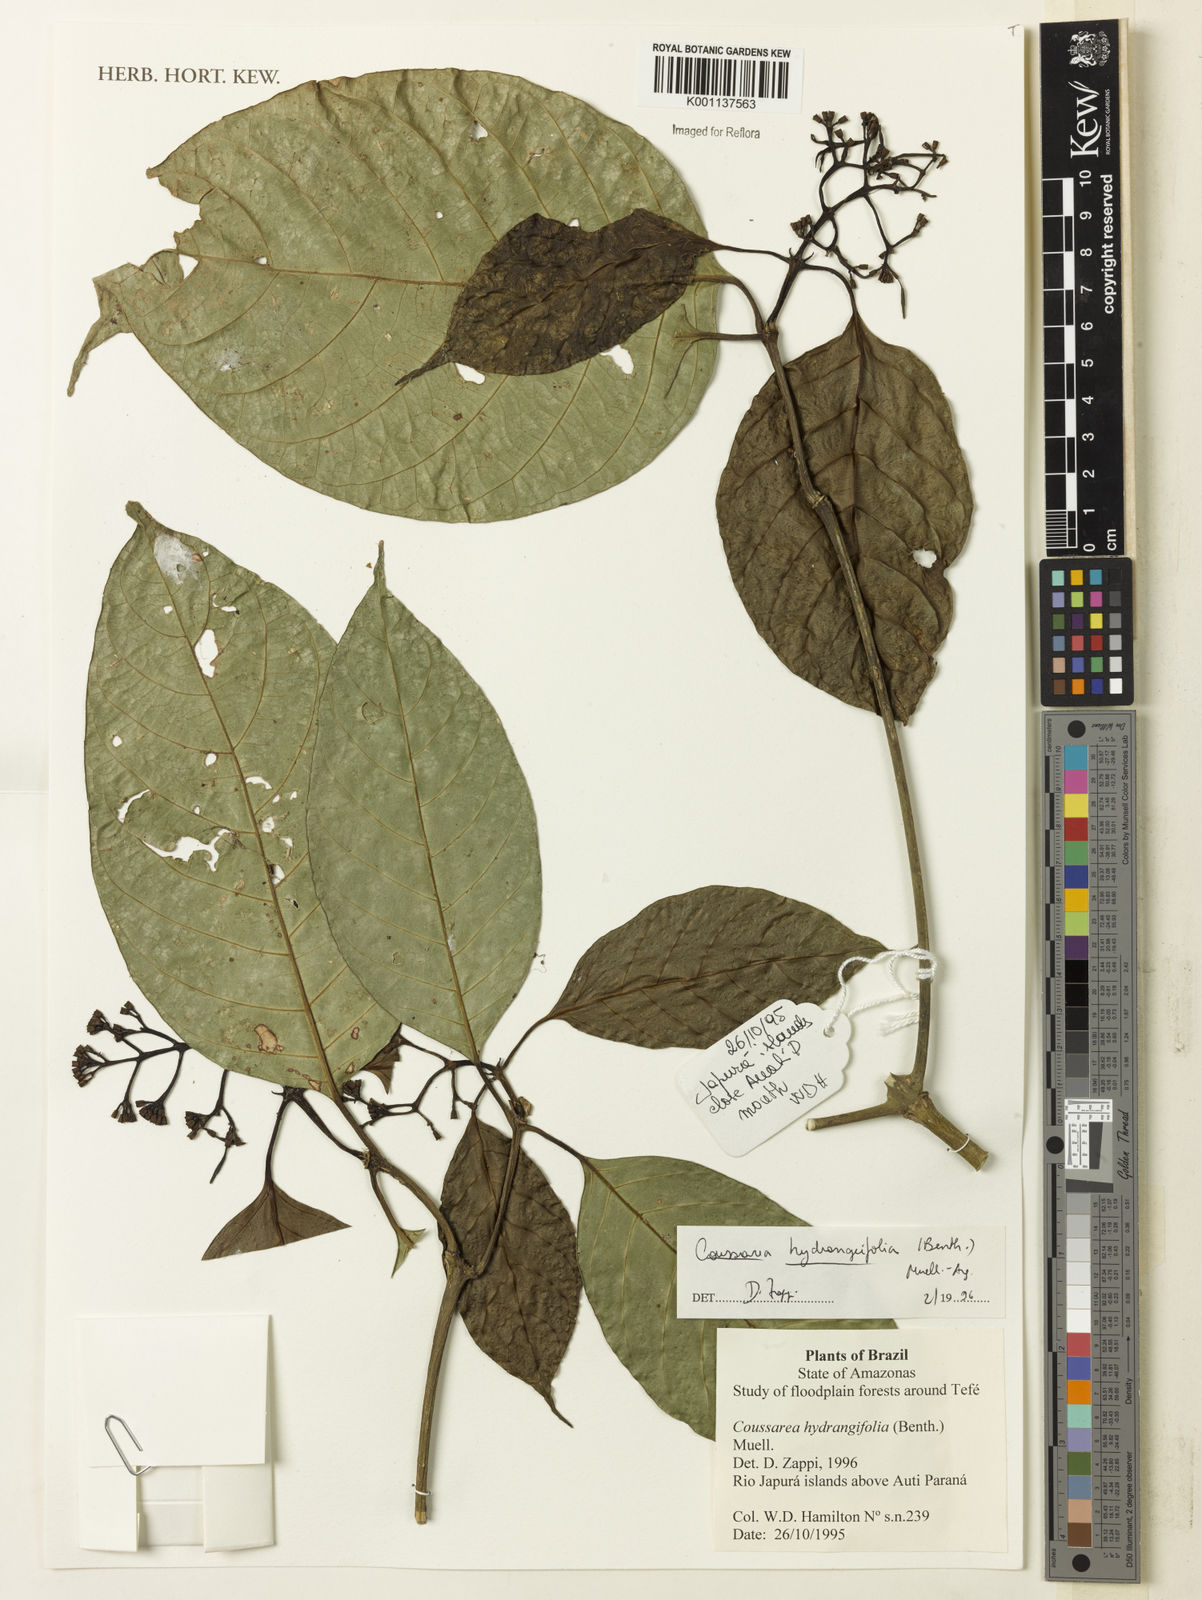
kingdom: Plantae
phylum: Tracheophyta
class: Magnoliopsida
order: Gentianales
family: Rubiaceae
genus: Coussarea
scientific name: Coussarea
